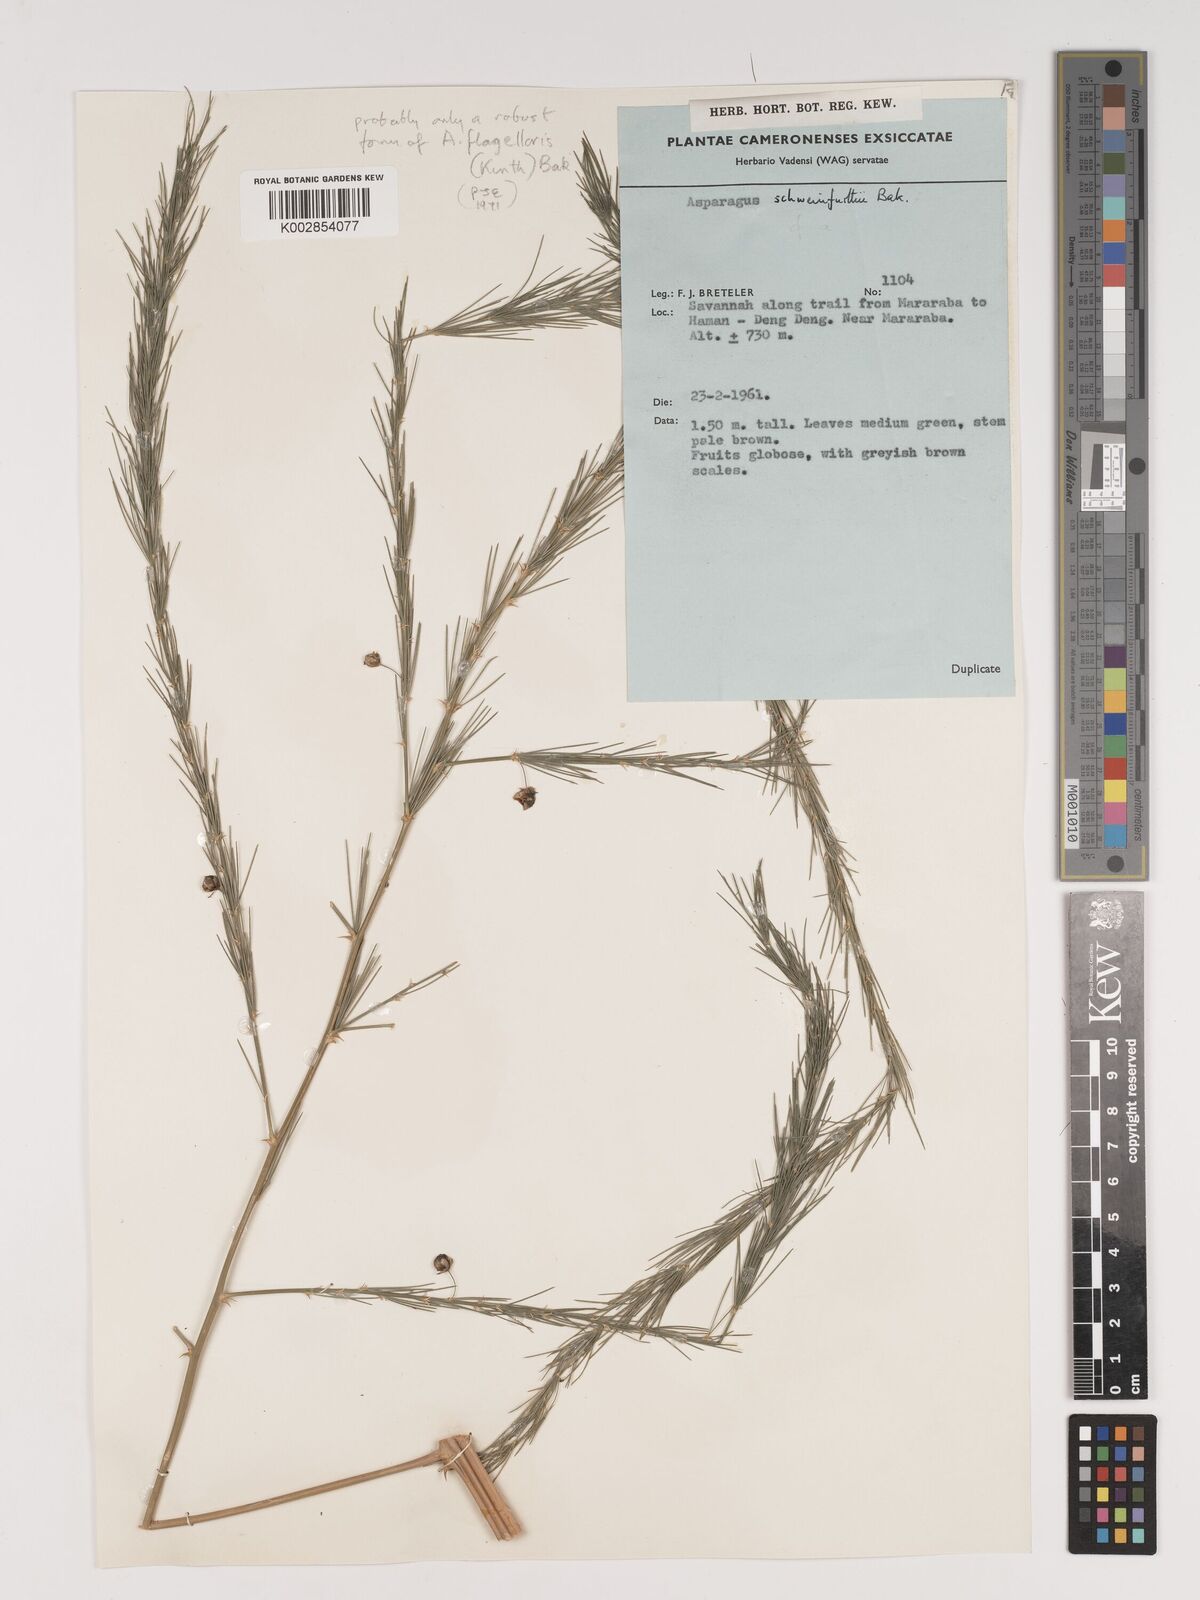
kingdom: Plantae
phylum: Tracheophyta
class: Liliopsida
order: Asparagales
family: Asparagaceae
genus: Asparagus
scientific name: Asparagus flagellaris
